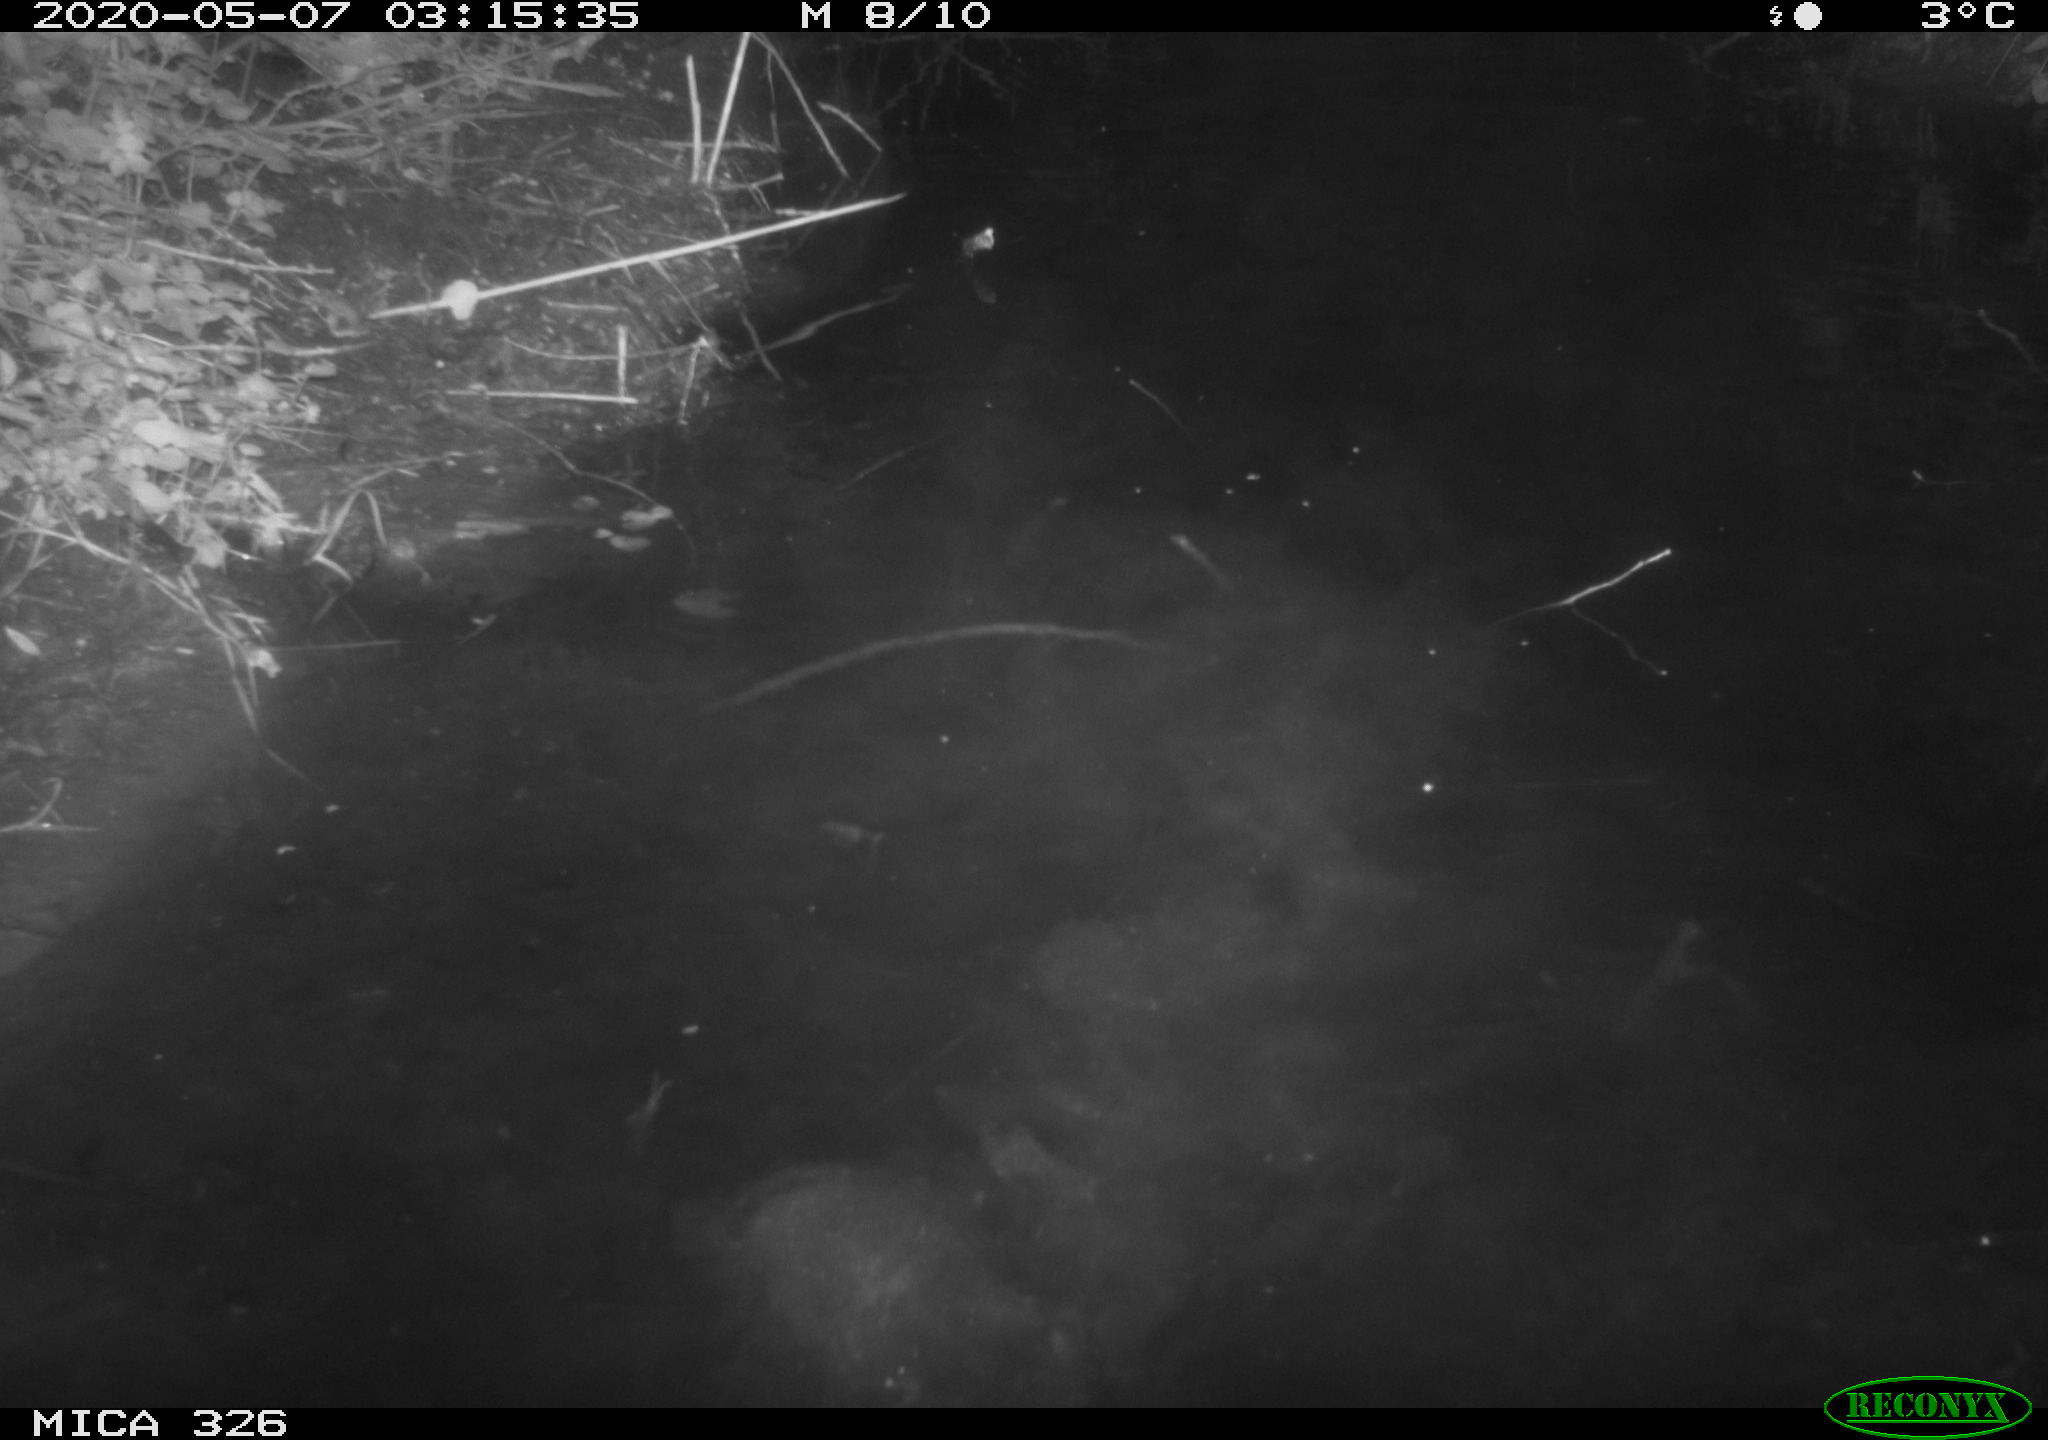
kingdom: Animalia
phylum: Chordata
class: Mammalia
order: Rodentia
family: Myocastoridae
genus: Myocastor
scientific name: Myocastor coypus
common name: Coypu
